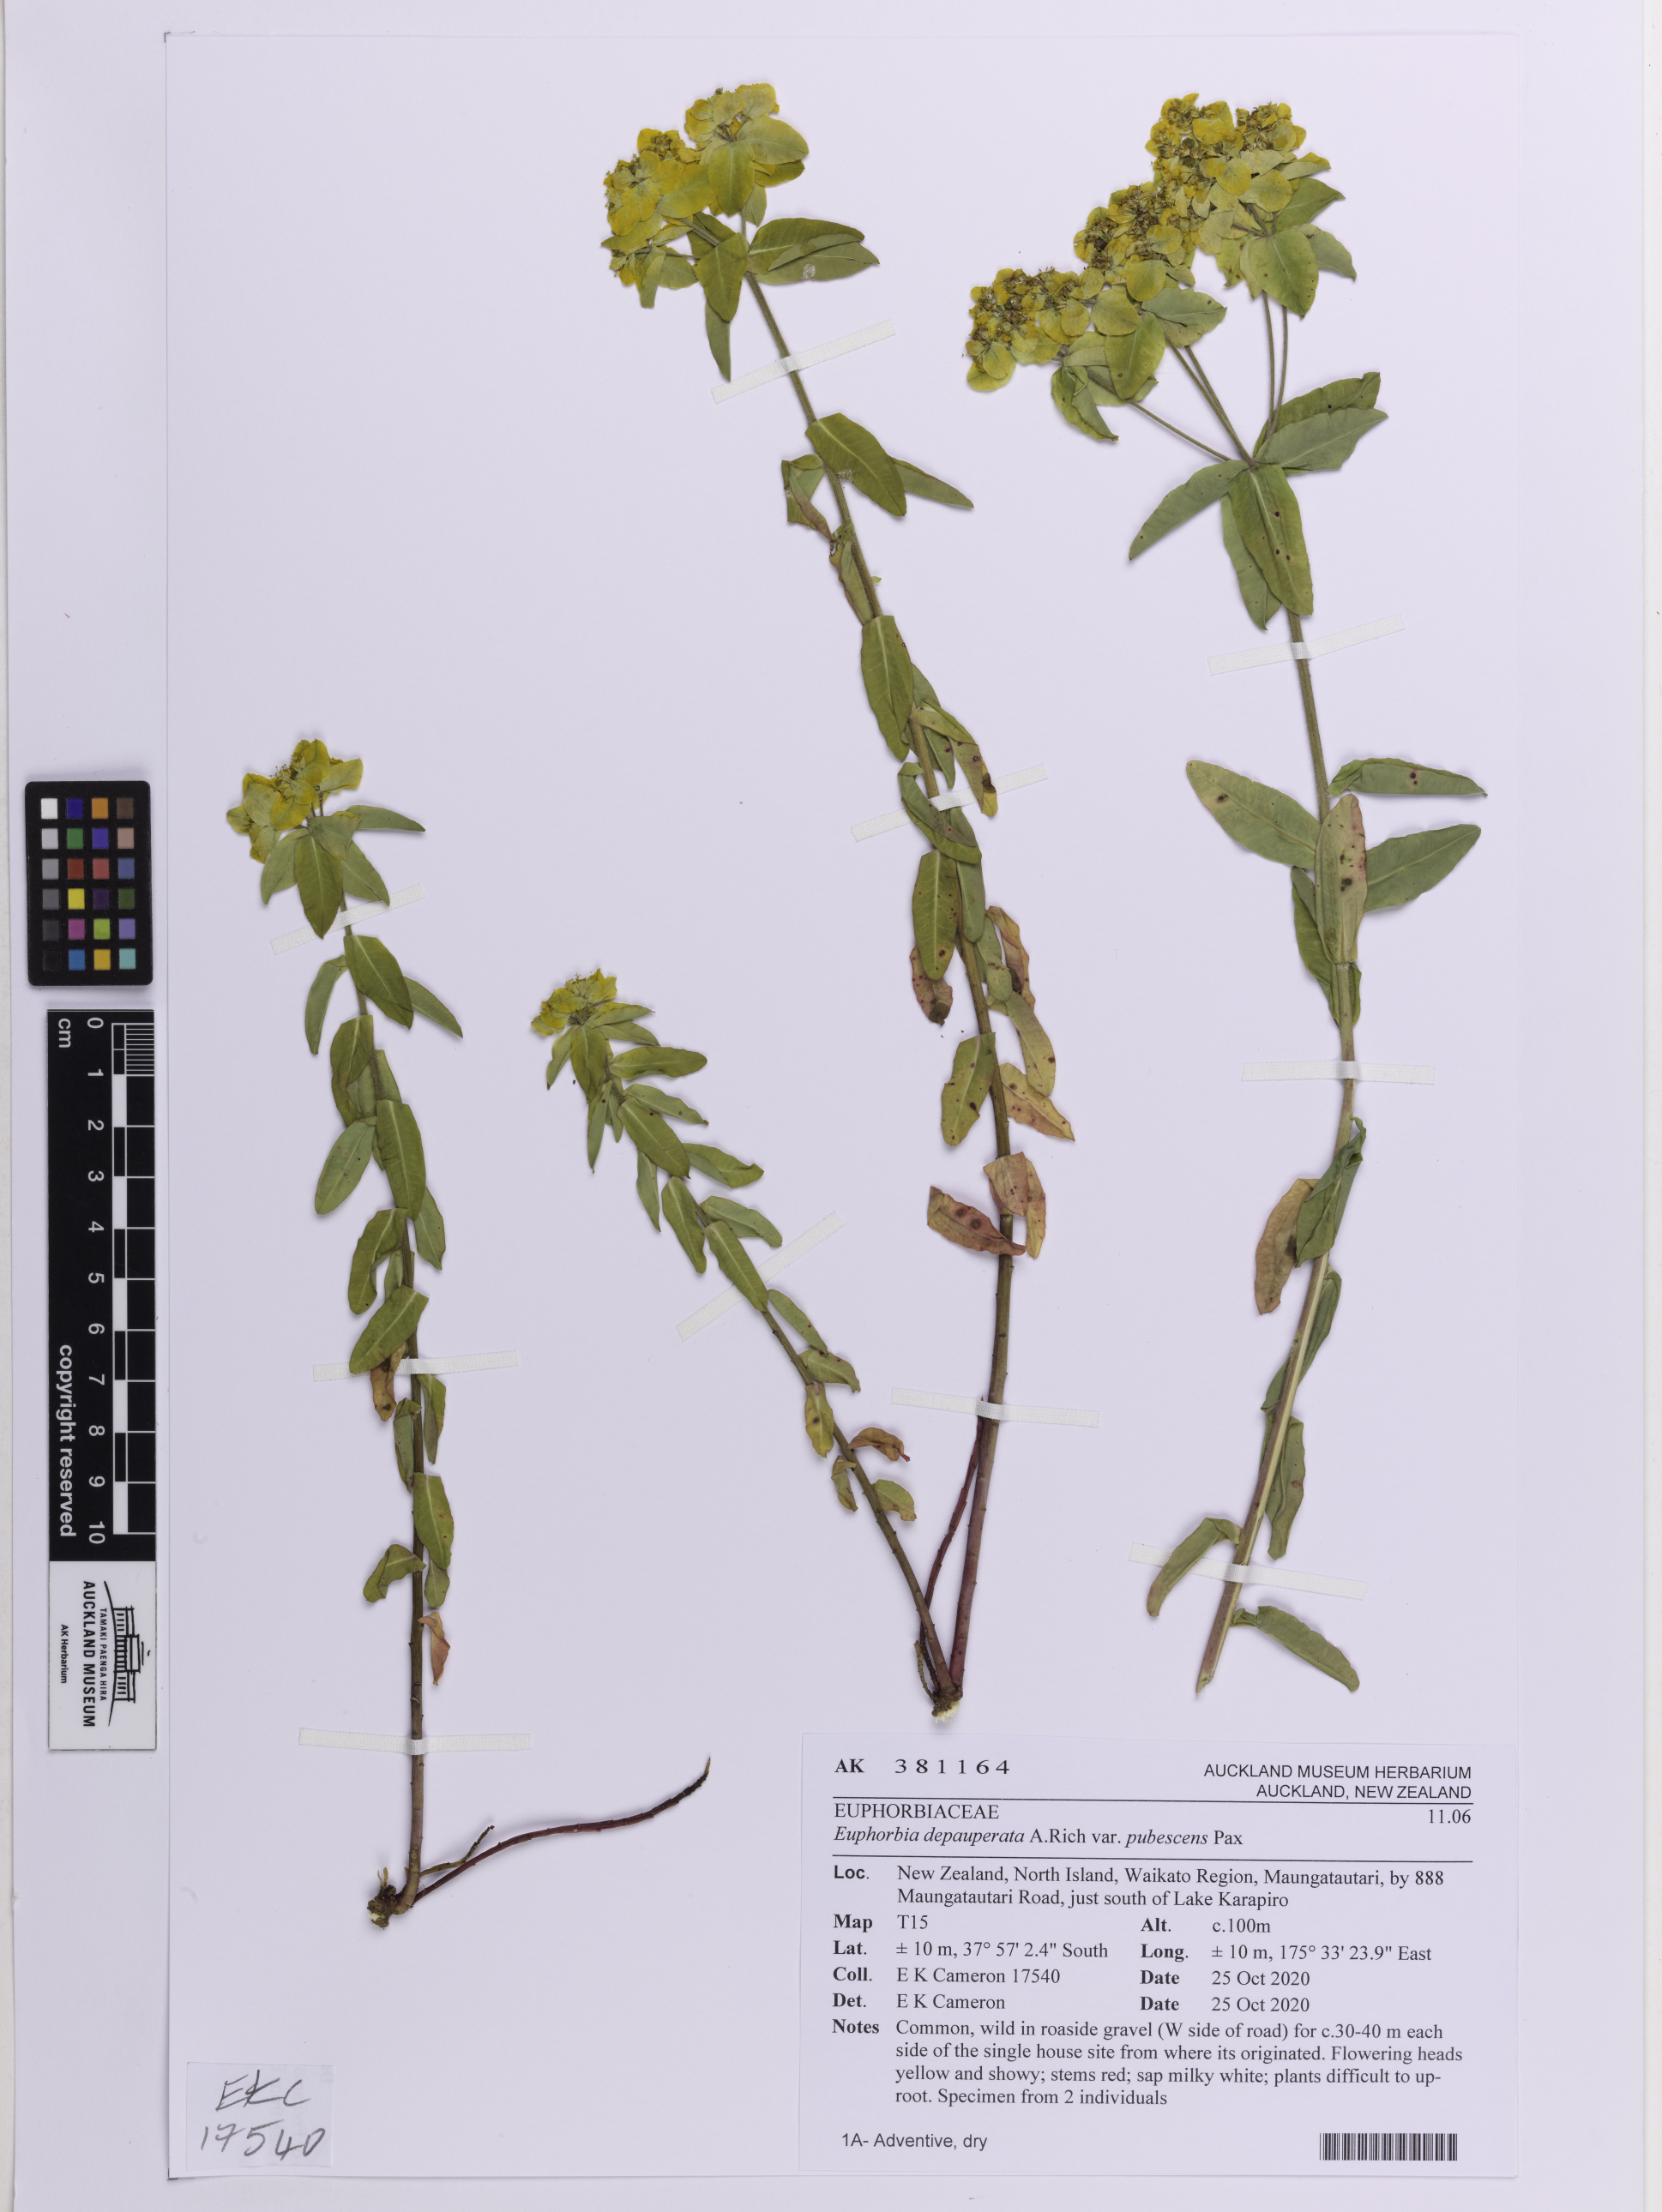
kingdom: Plantae
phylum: Tracheophyta
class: Magnoliopsida
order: Malpighiales
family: Euphorbiaceae
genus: Euphorbia
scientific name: Euphorbia oblongata
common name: Balkan spurge
